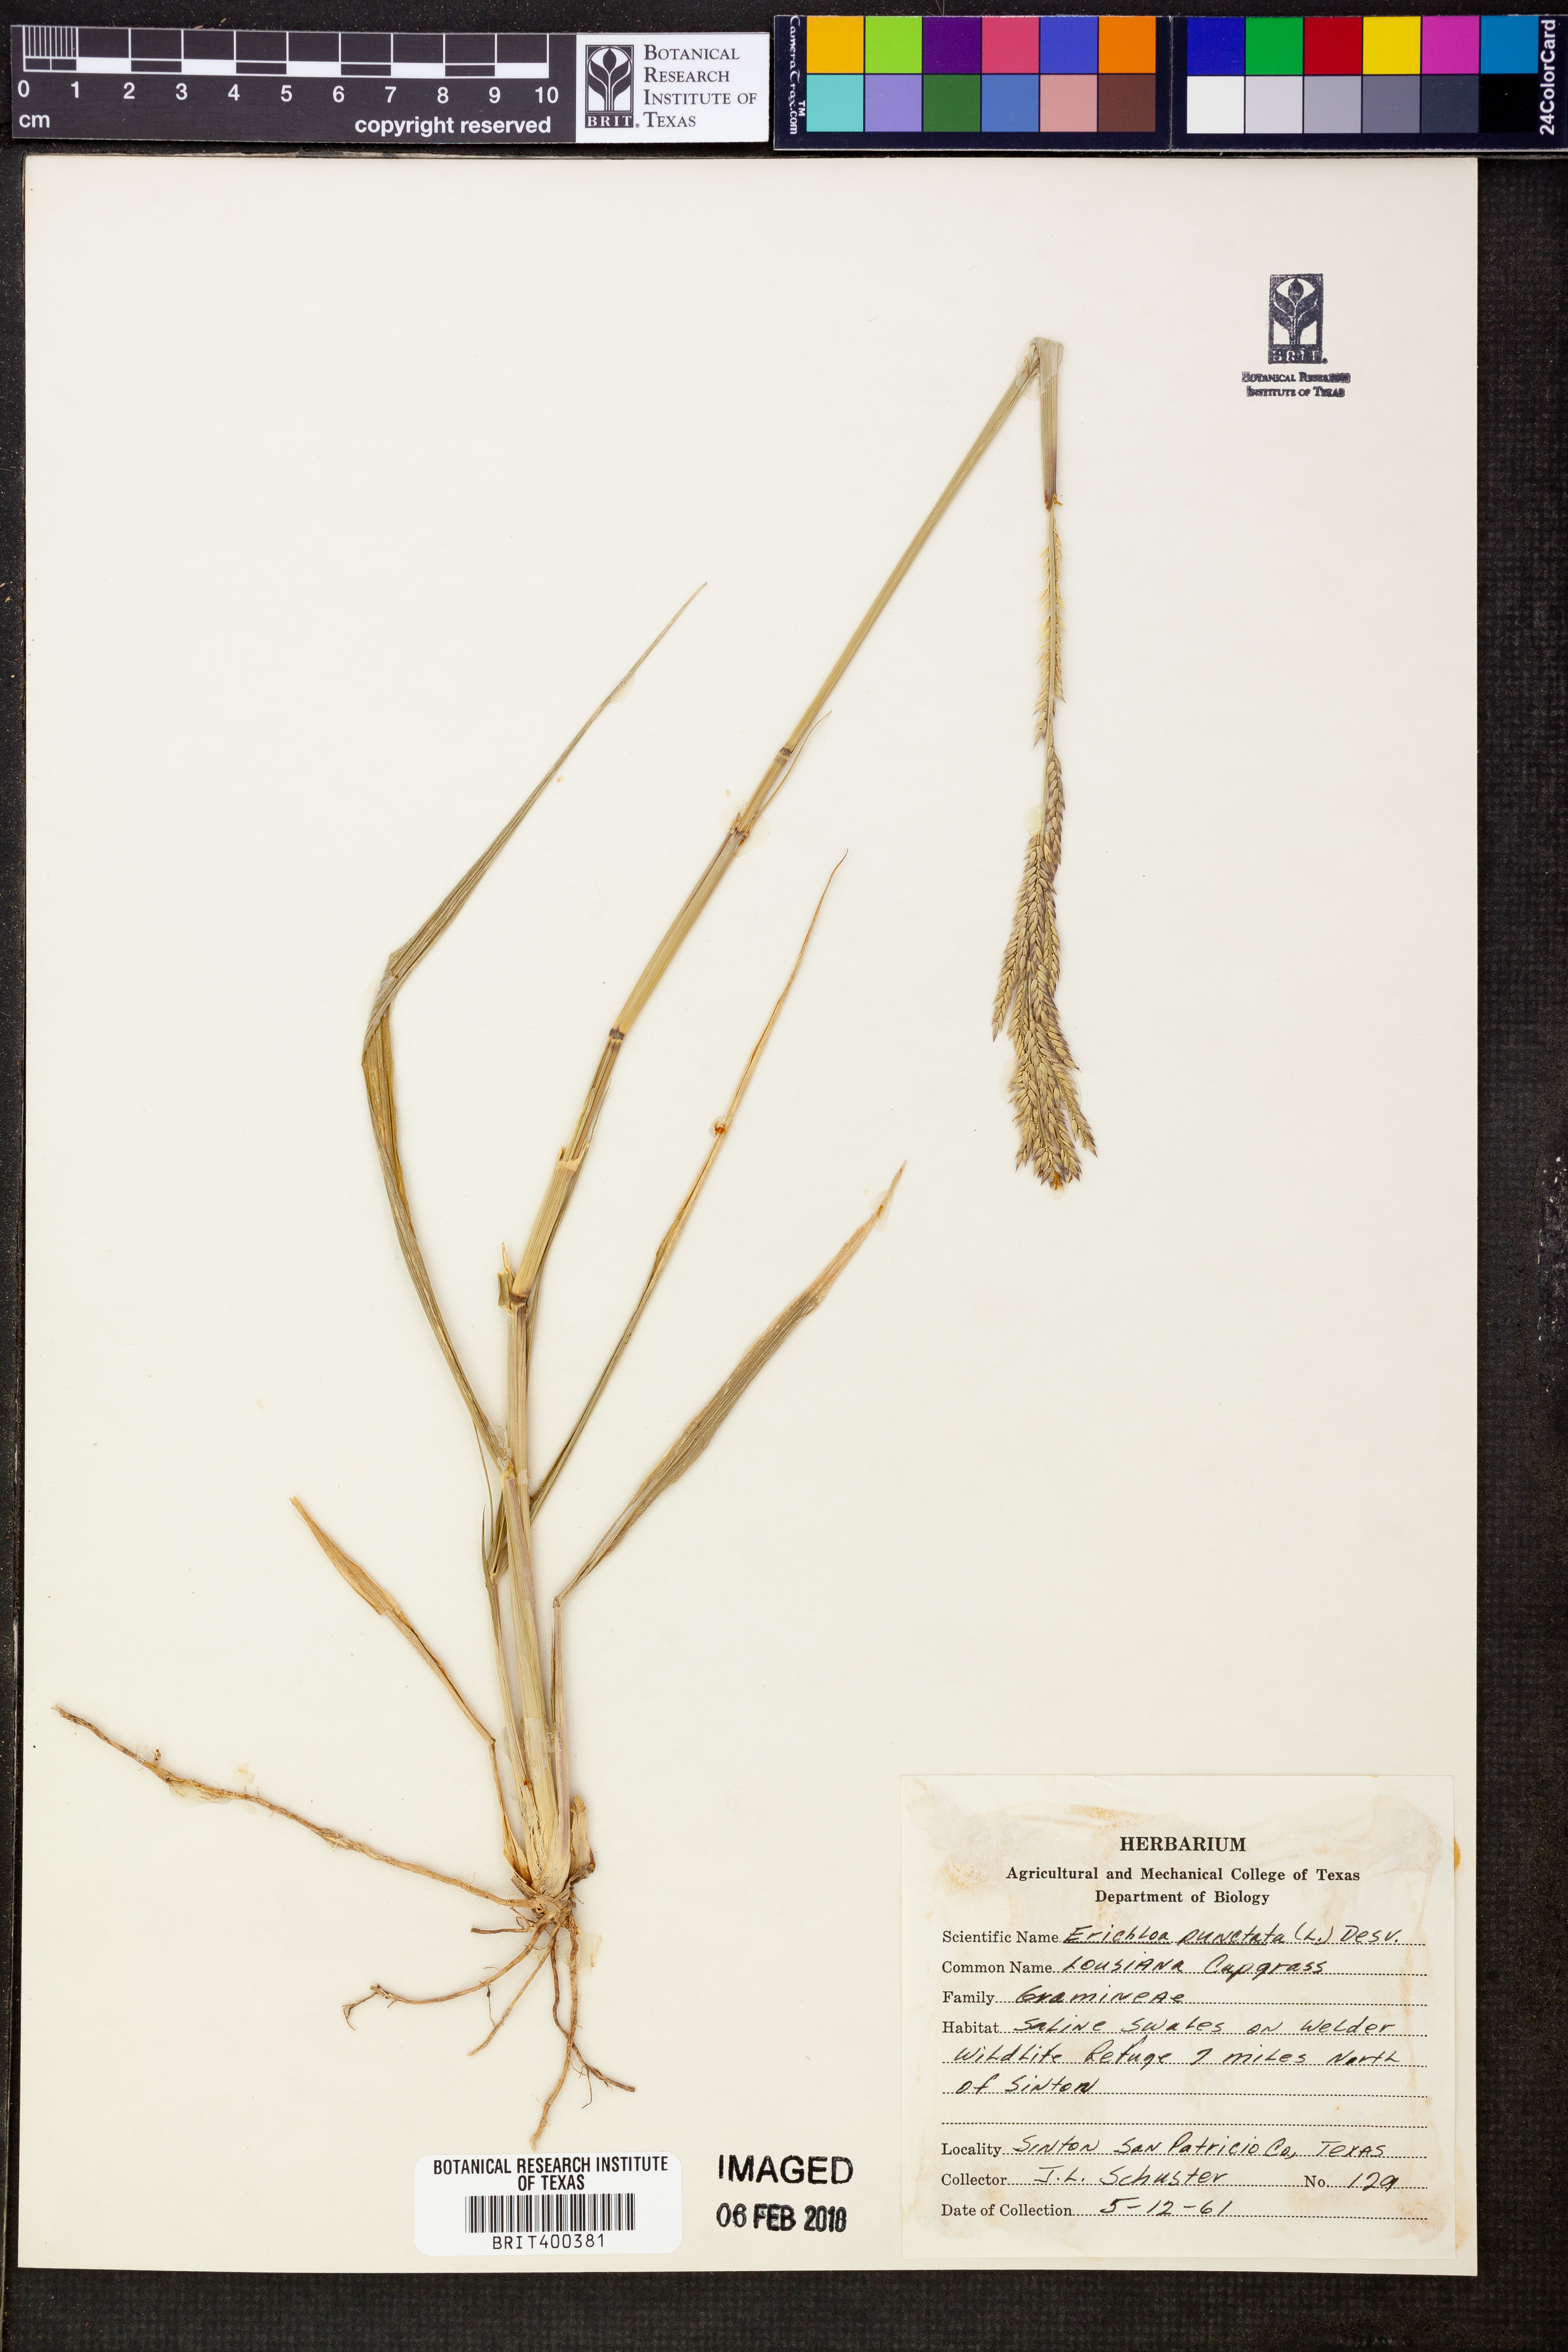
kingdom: Plantae
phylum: Tracheophyta
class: Liliopsida
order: Poales
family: Poaceae
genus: Urochloa
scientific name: Urochloa polystachya
